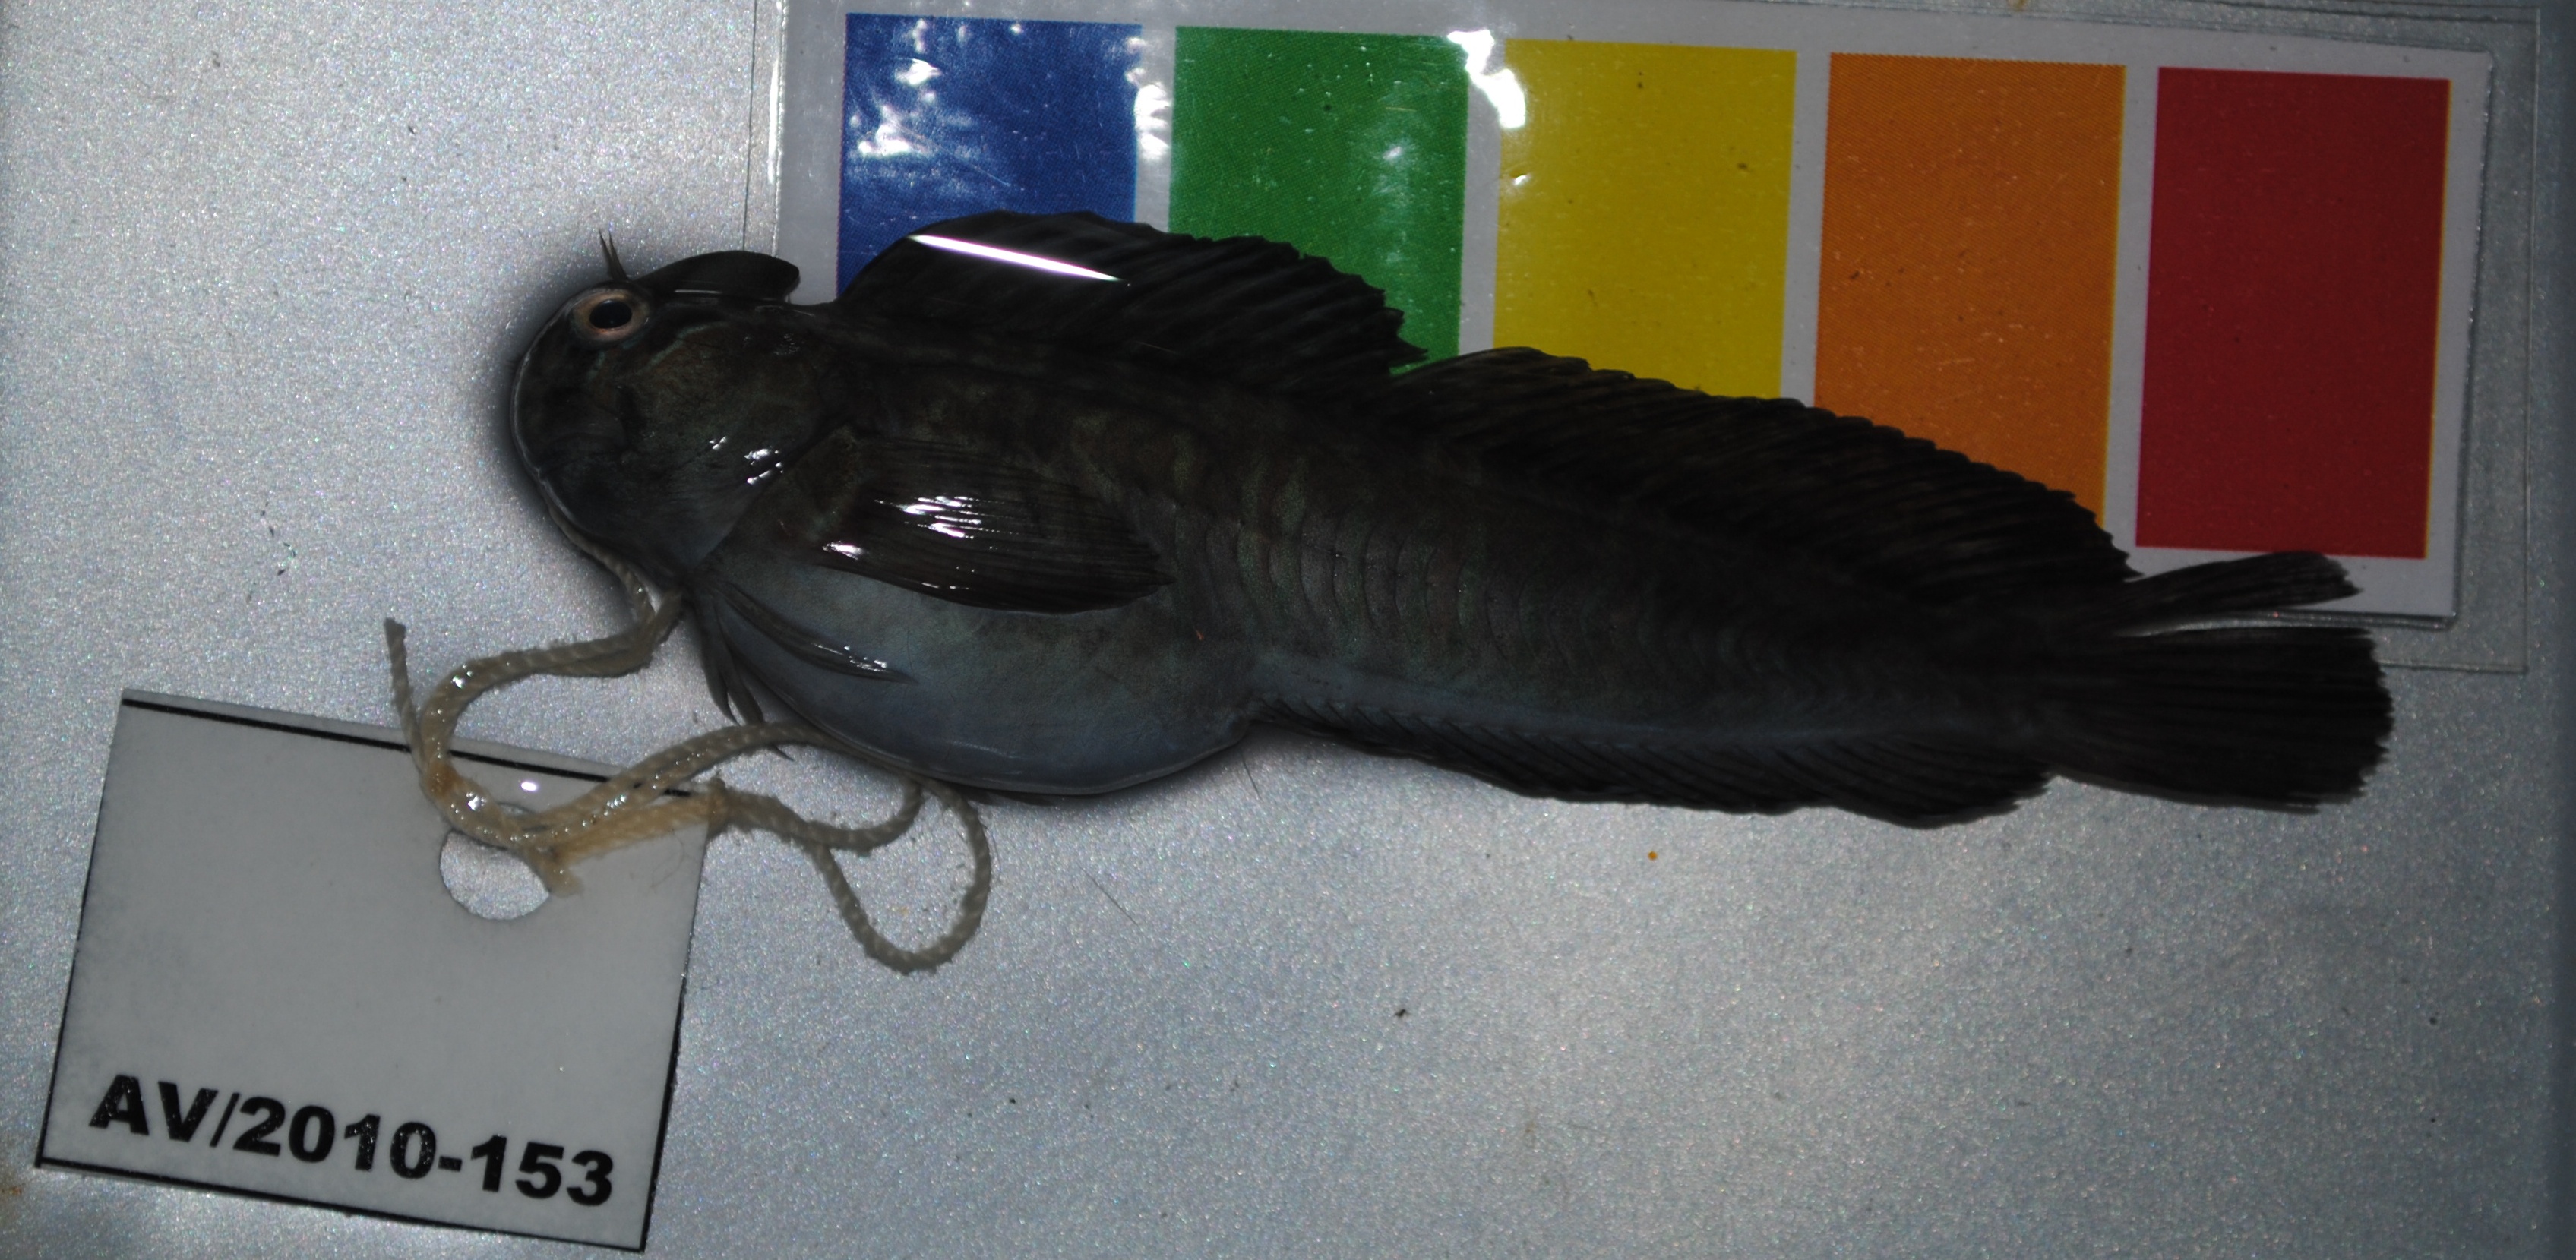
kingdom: Animalia
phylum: Chordata
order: Perciformes
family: Blenniidae
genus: Istiblennius
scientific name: Istiblennius edentulus
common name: Rippled rockskipper
